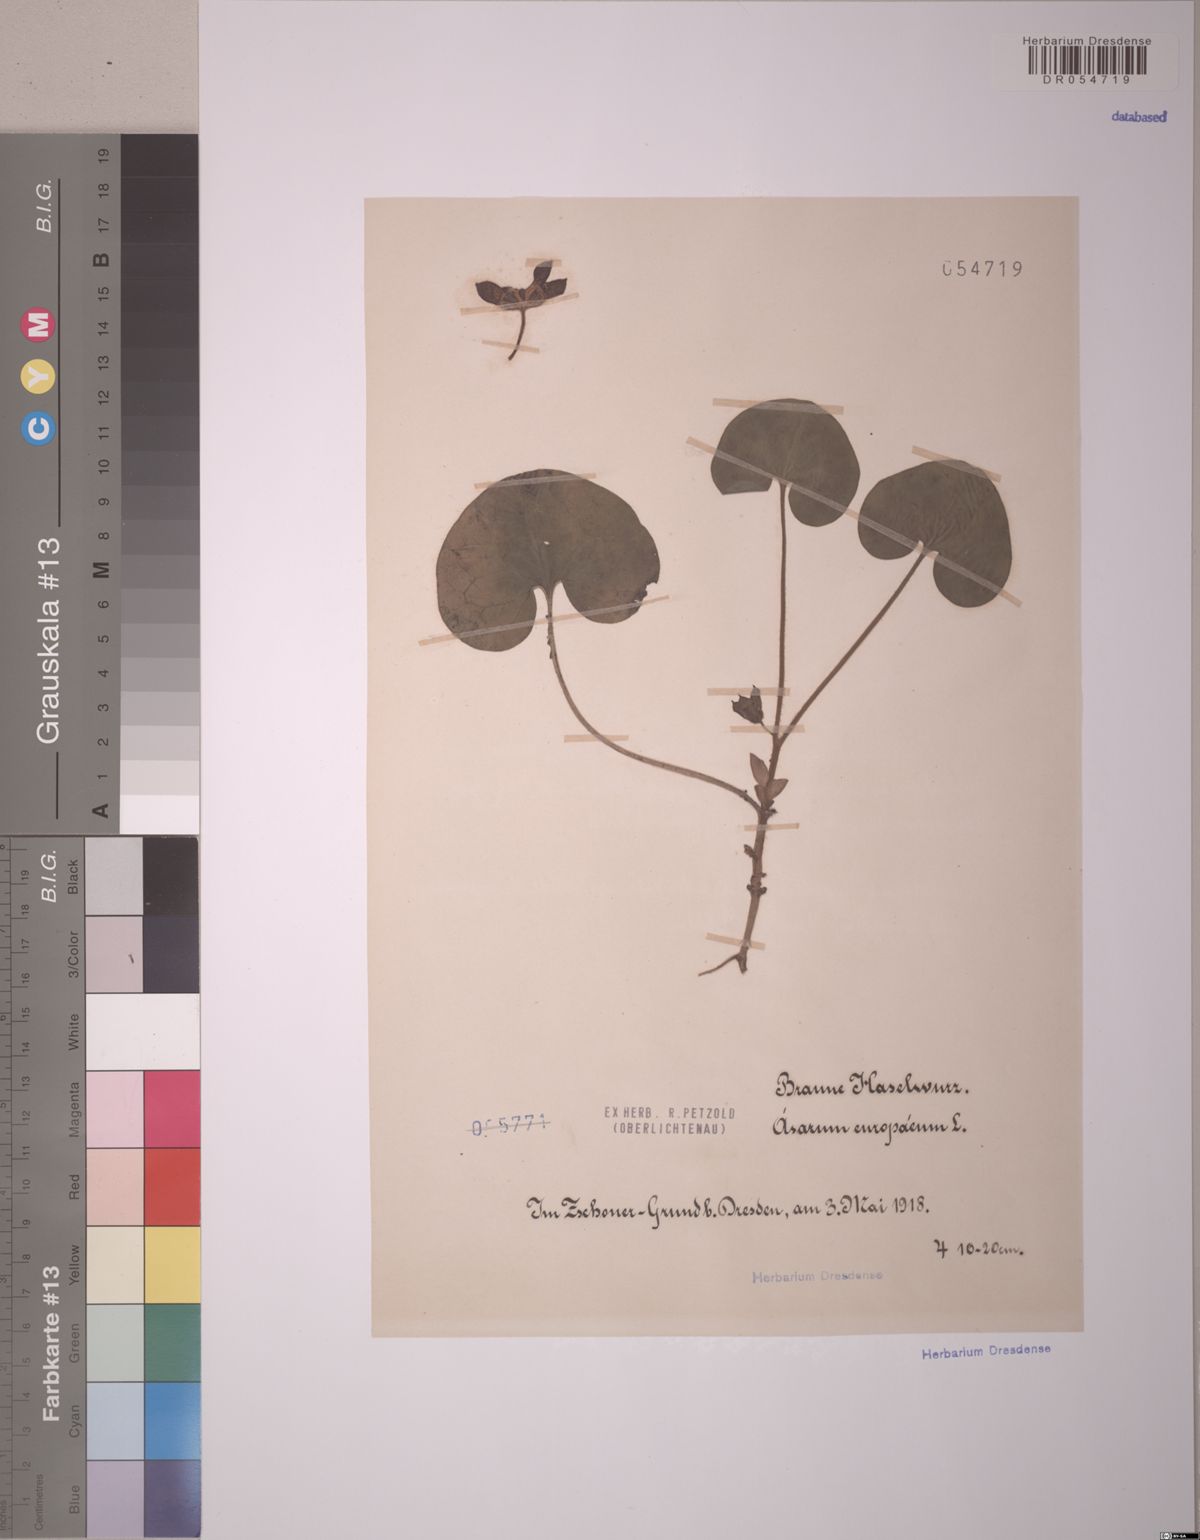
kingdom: Plantae
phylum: Tracheophyta
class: Magnoliopsida
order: Piperales
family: Aristolochiaceae
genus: Asarum
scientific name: Asarum europaeum
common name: Asarabacca
